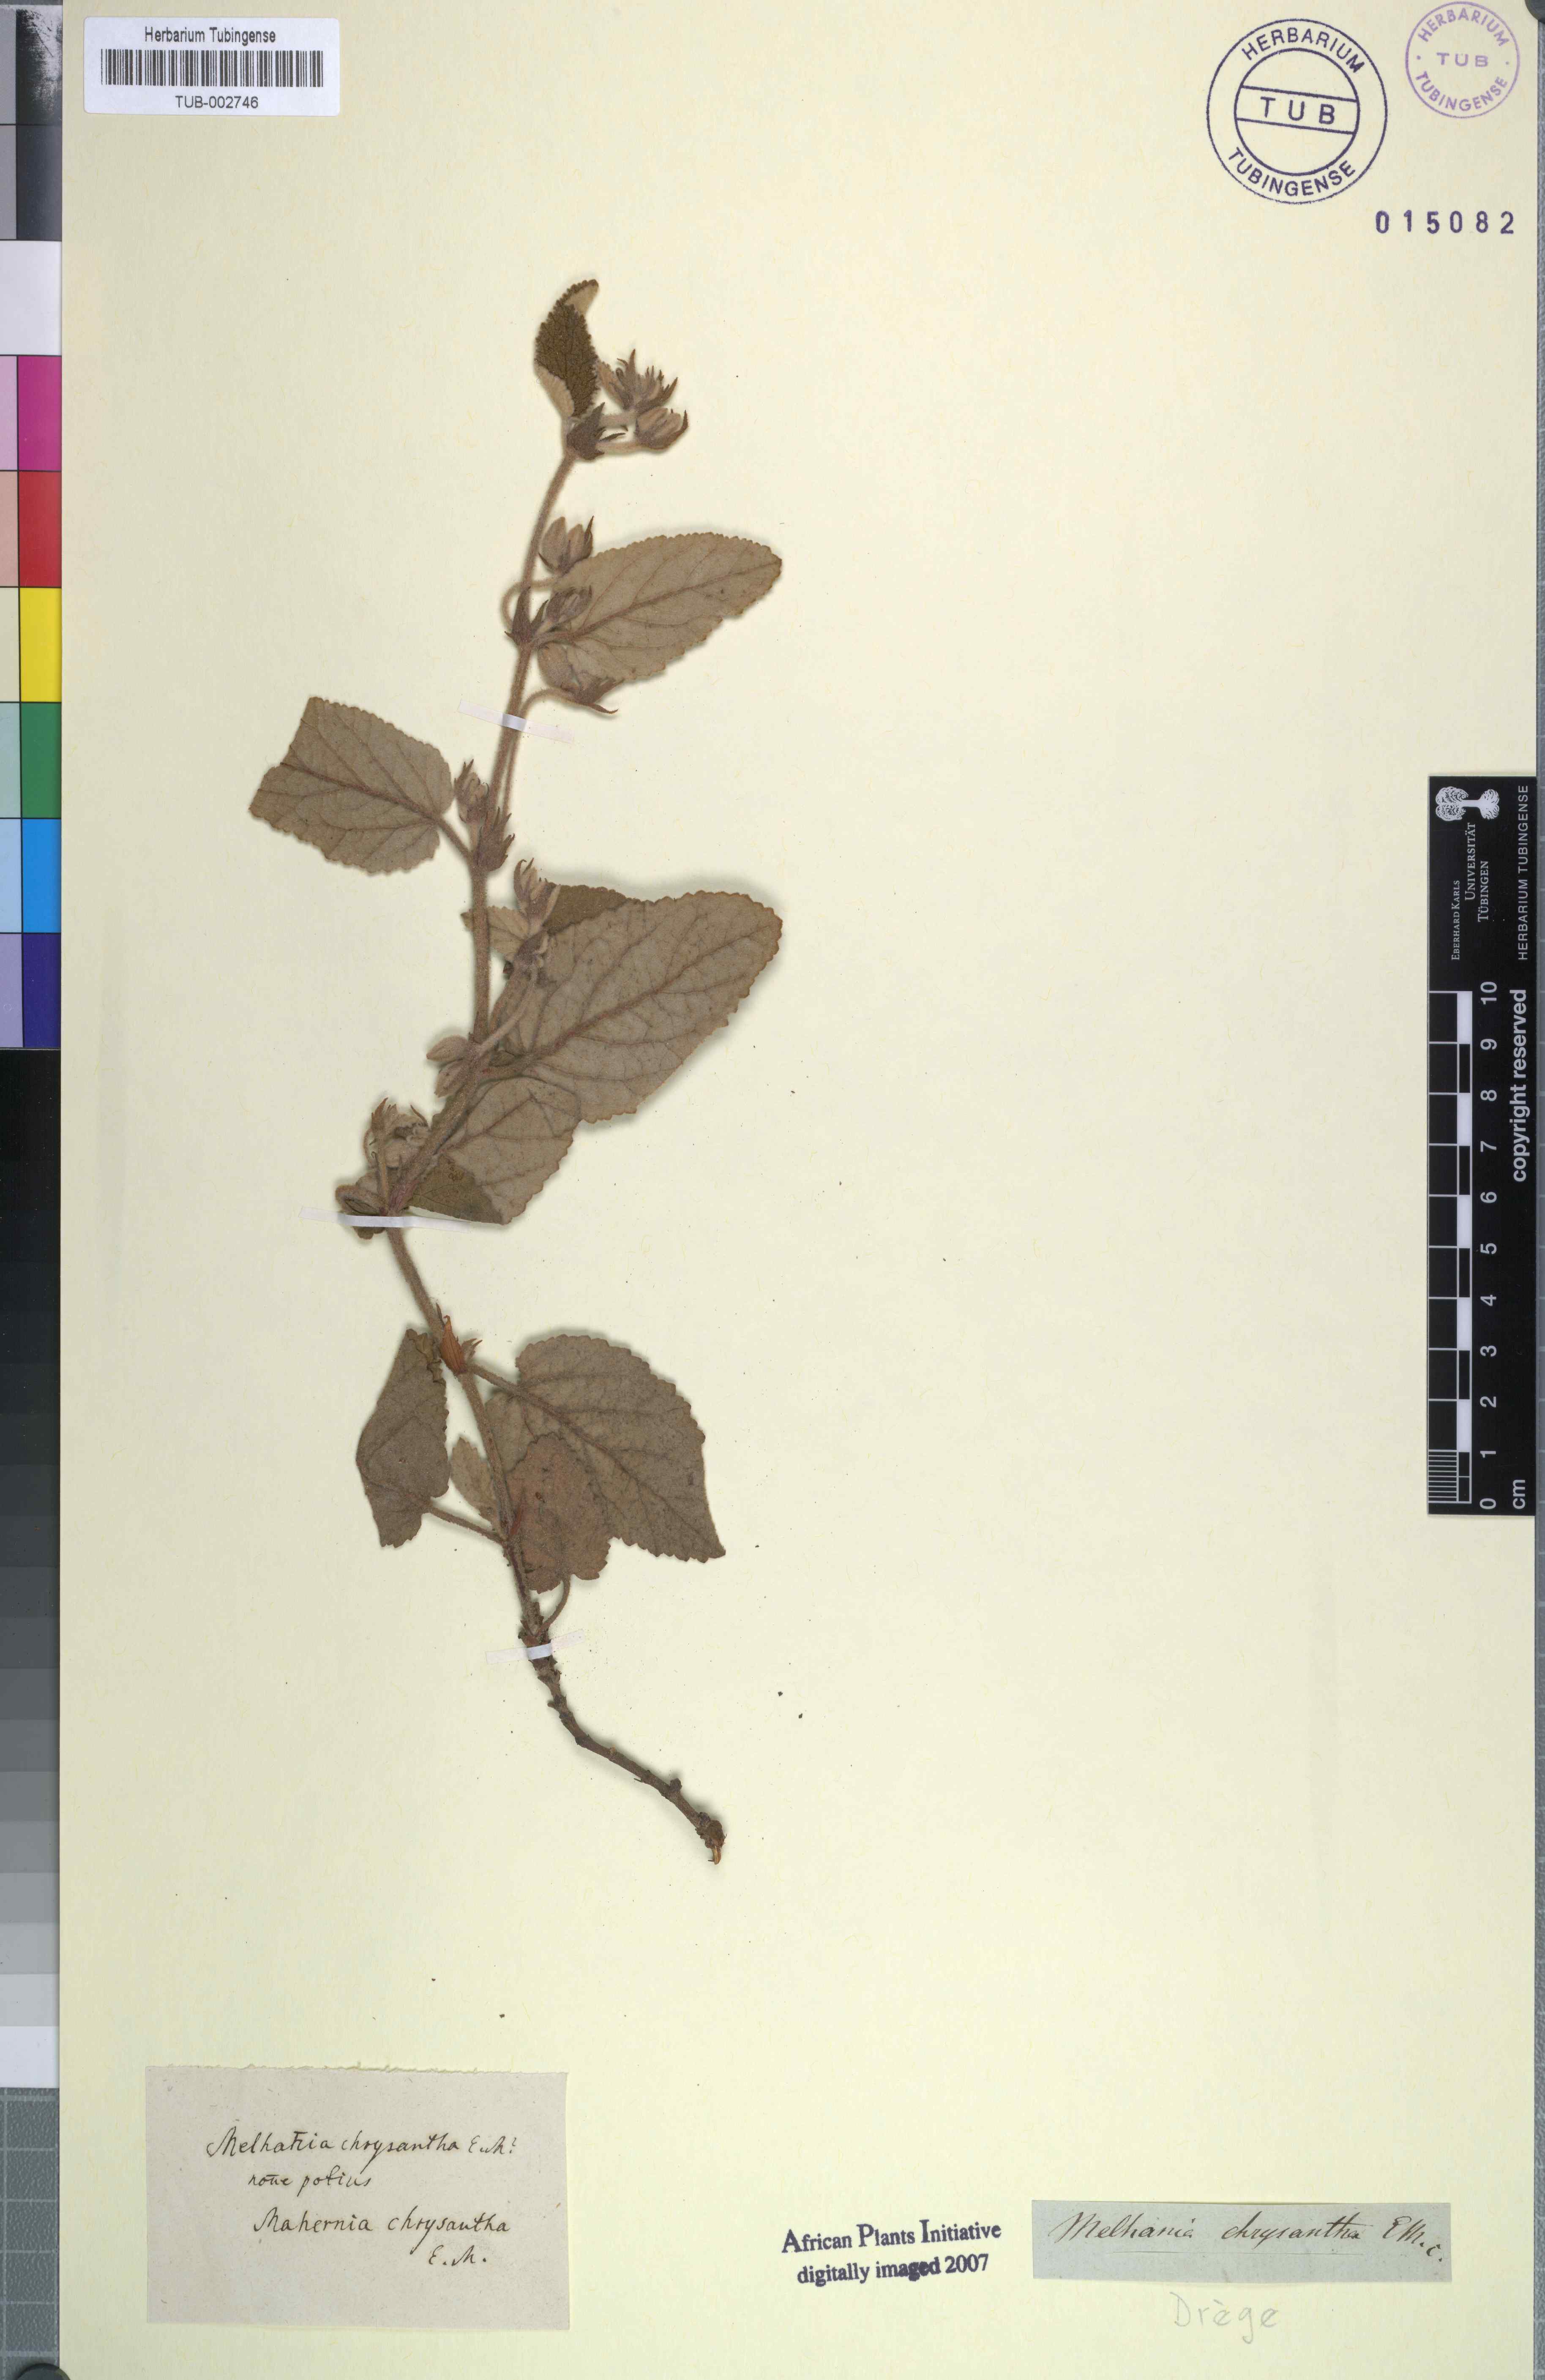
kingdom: Plantae
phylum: Tracheophyta
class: Magnoliopsida
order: Malvales
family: Malvaceae
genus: Hermannia
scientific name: Hermannia geniculata
